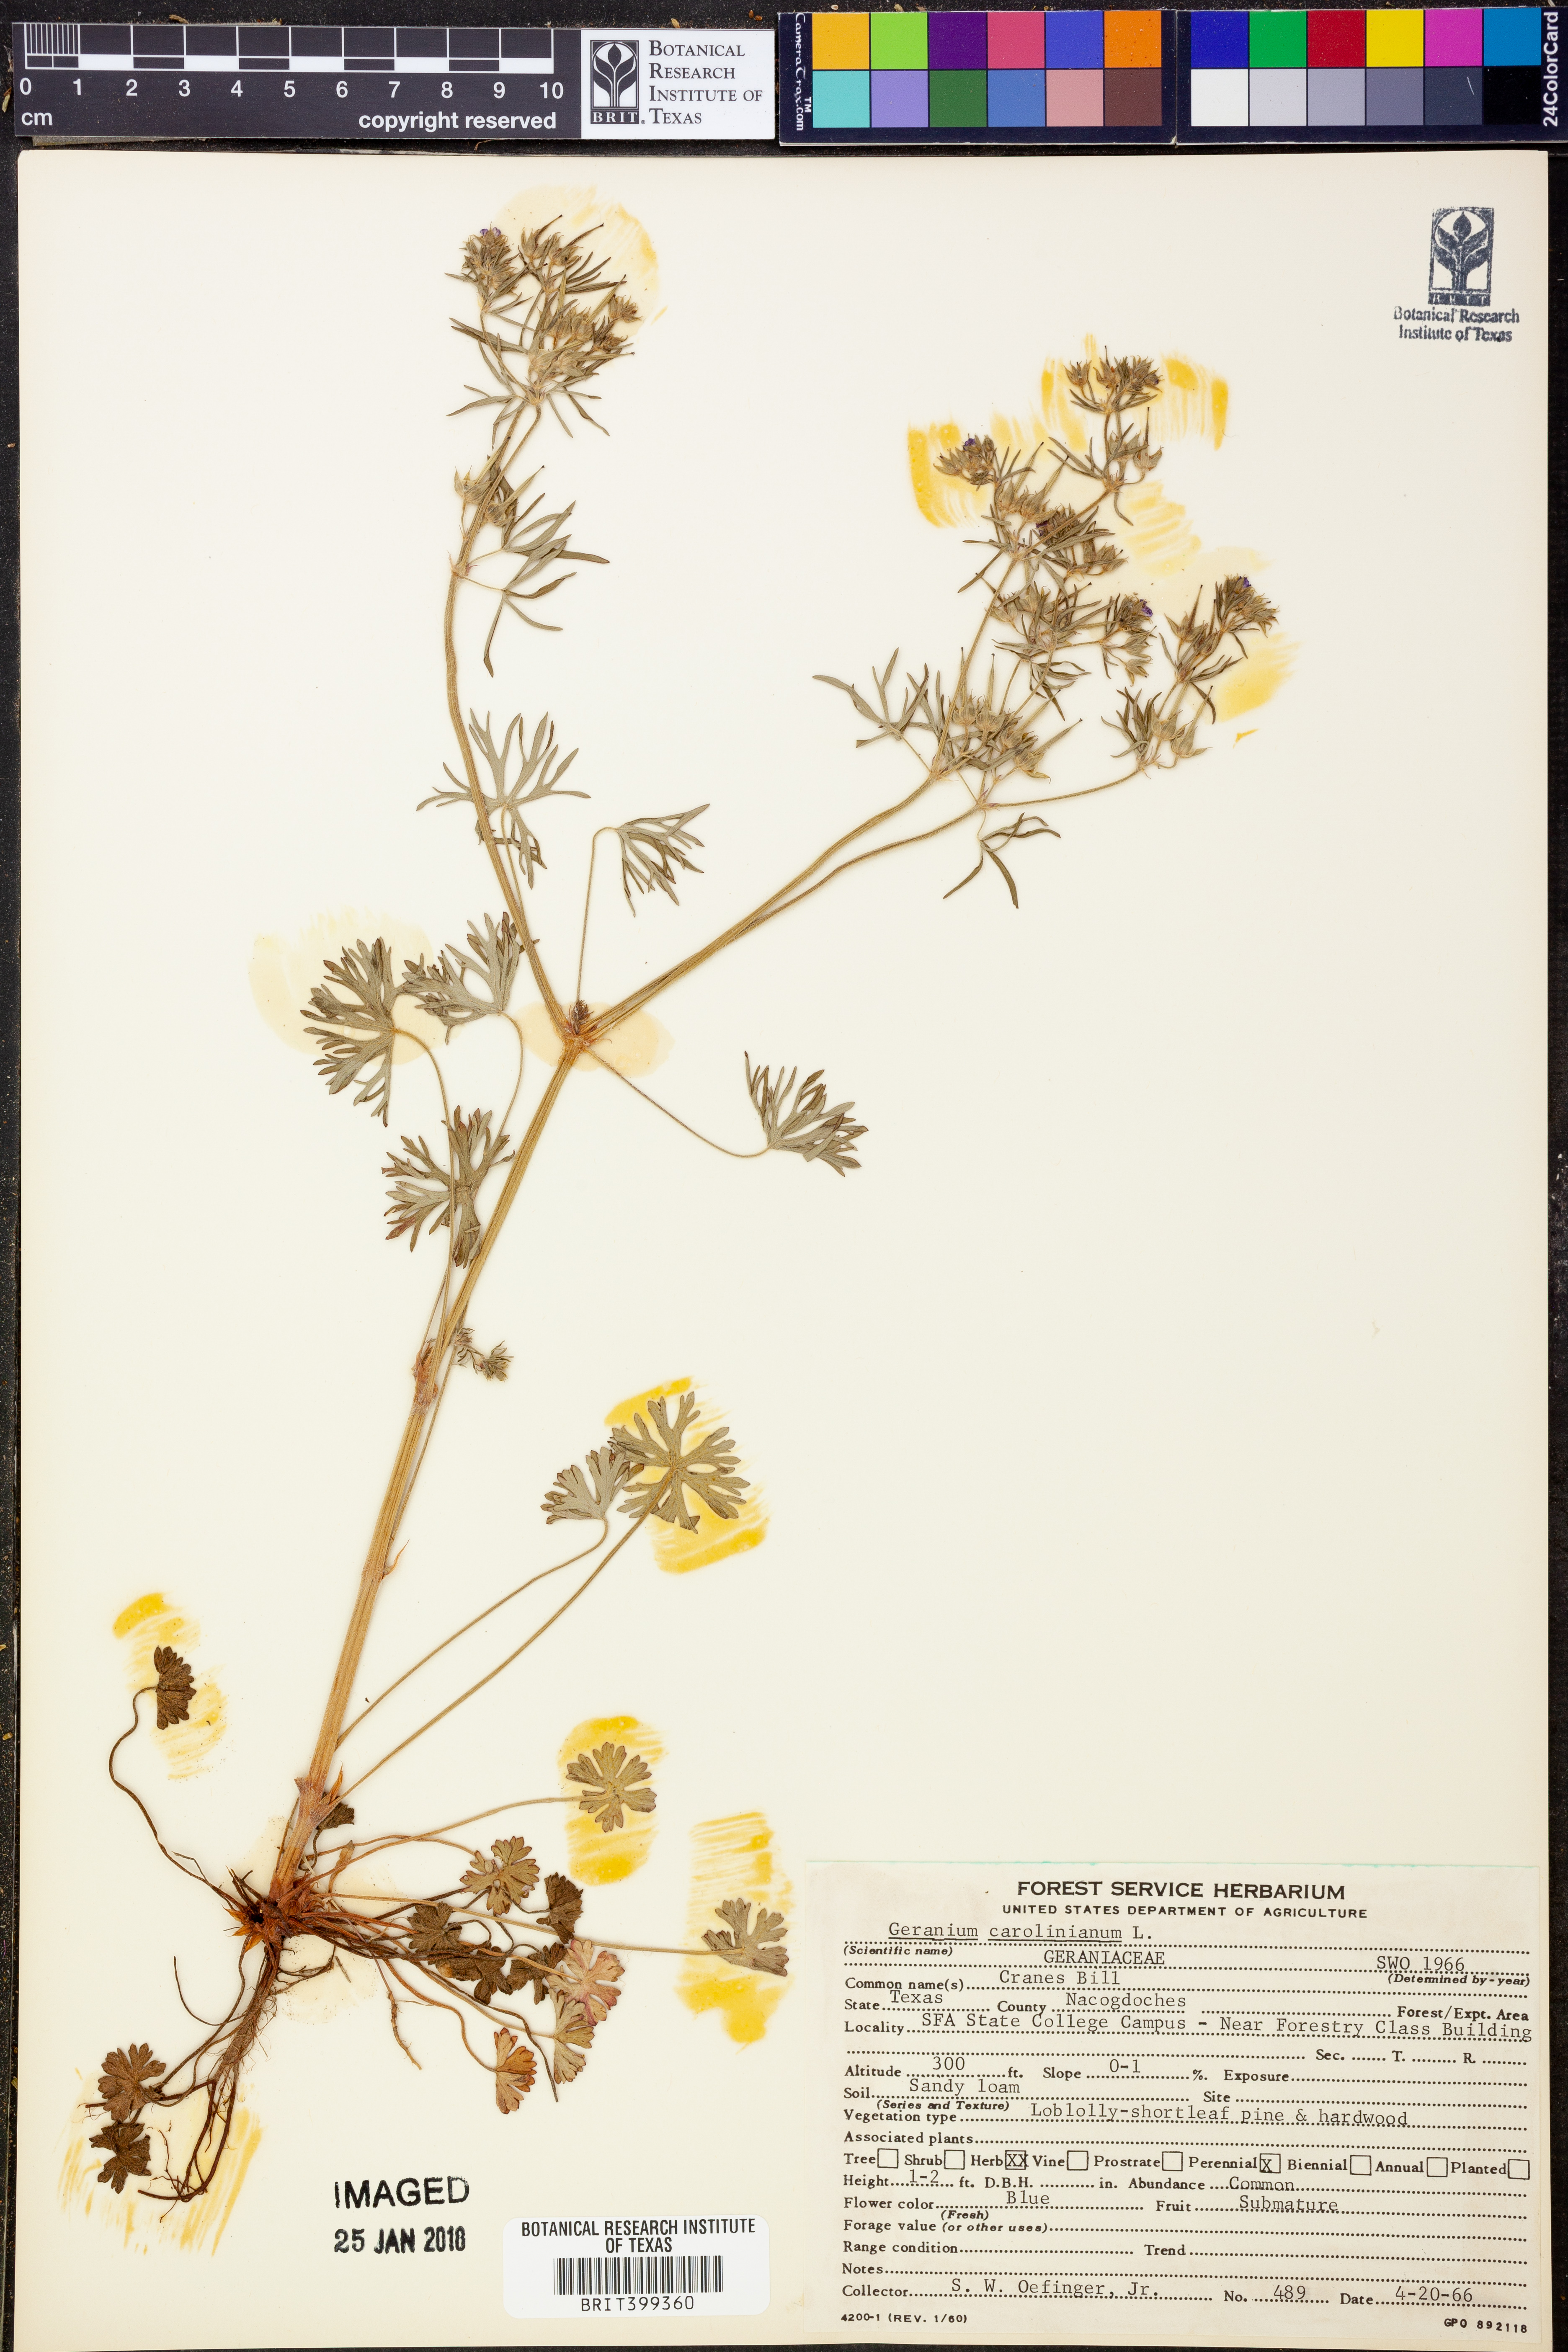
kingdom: Plantae
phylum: Tracheophyta
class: Magnoliopsida
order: Geraniales
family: Geraniaceae
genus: Geranium
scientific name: Geranium carolinianum
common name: Carolina crane's-bill
